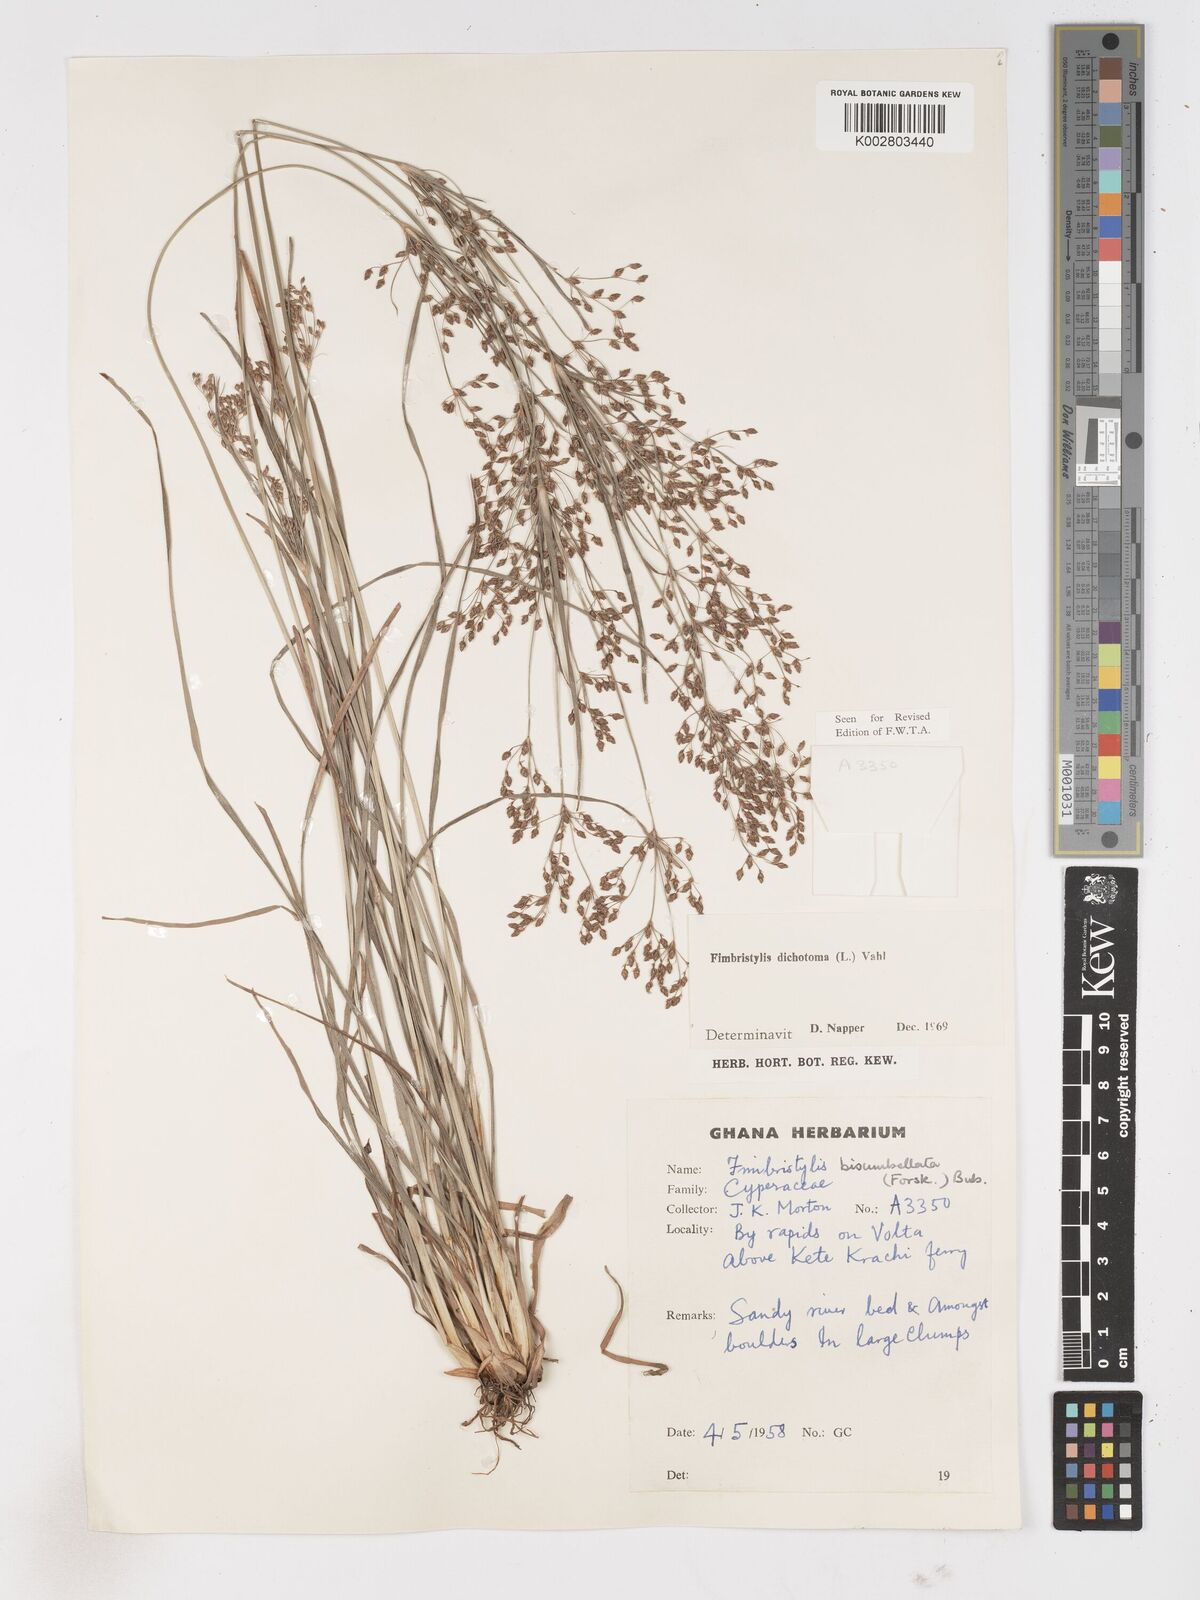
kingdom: Plantae
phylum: Tracheophyta
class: Liliopsida
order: Poales
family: Cyperaceae
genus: Fimbristylis
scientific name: Fimbristylis dichotoma
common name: Forked fimbry
